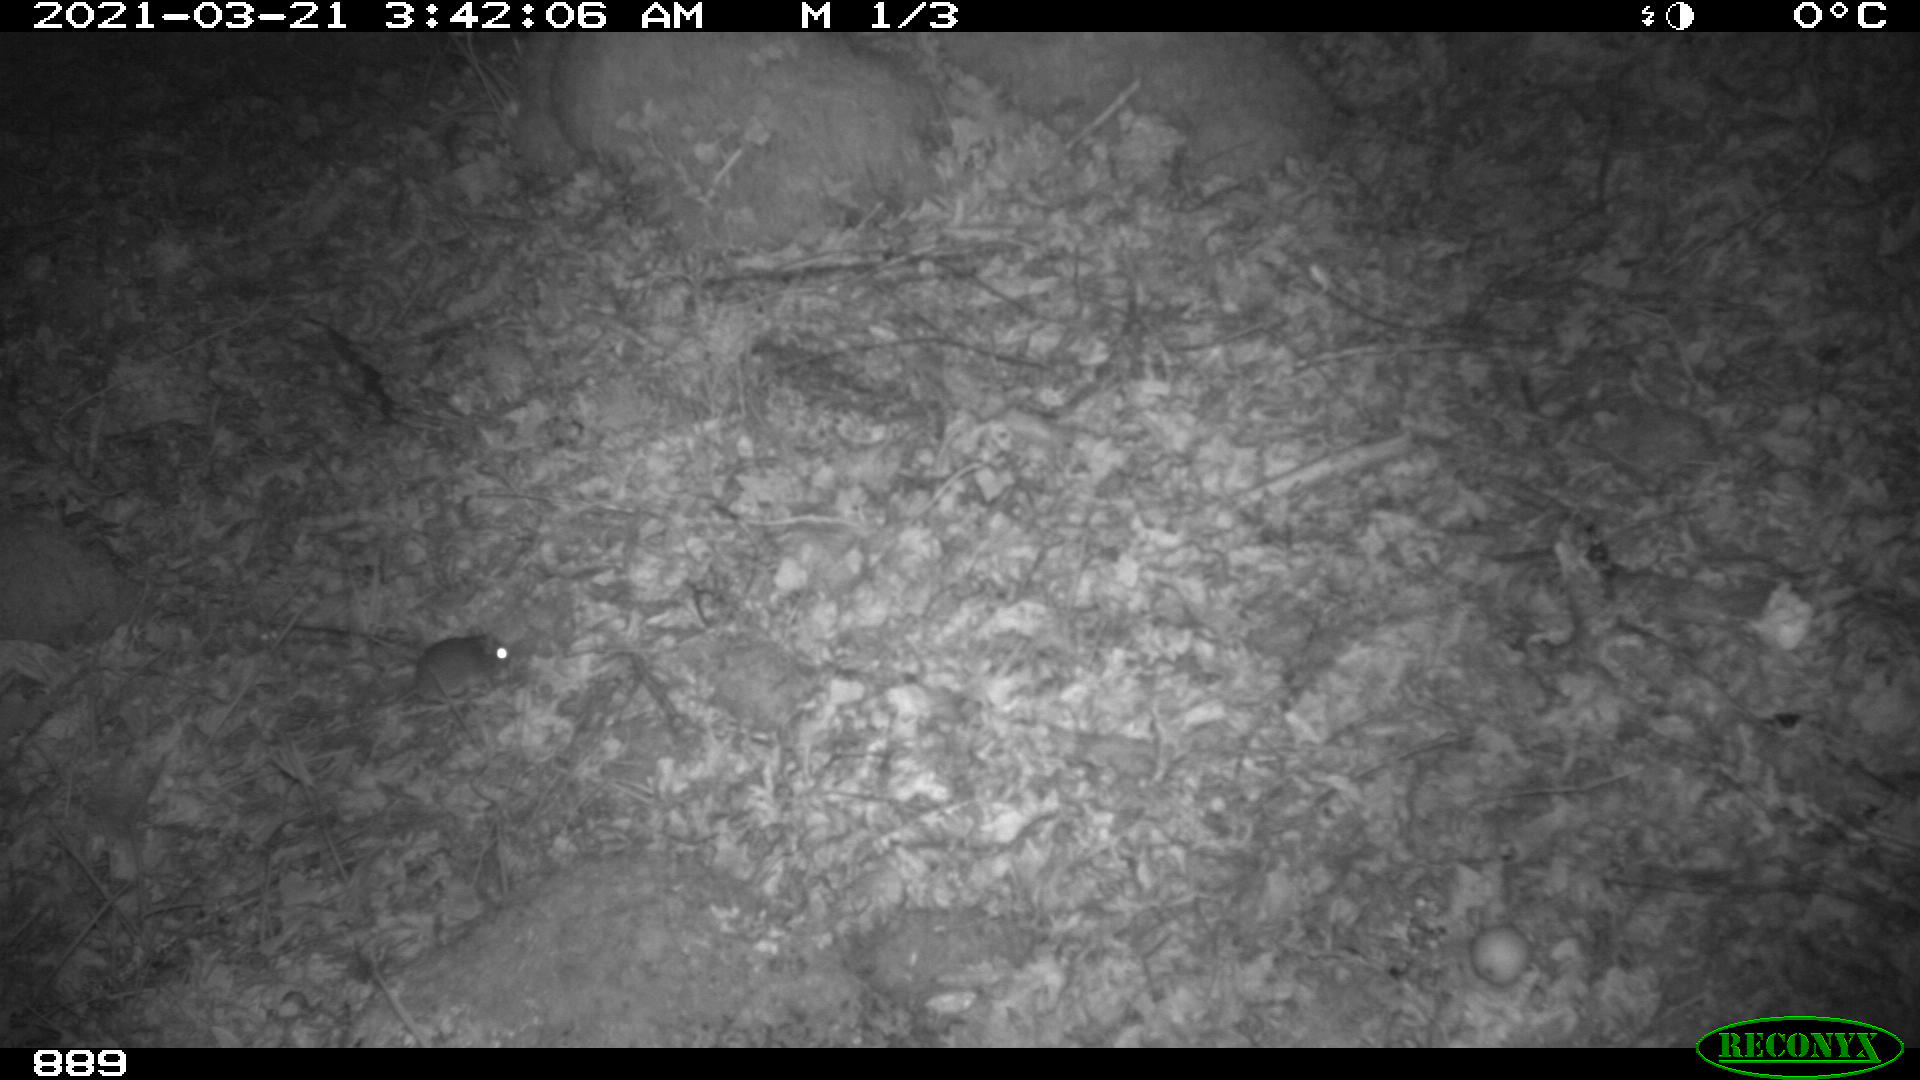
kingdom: Animalia
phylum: Chordata
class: Mammalia
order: Rodentia
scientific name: Rodentia
